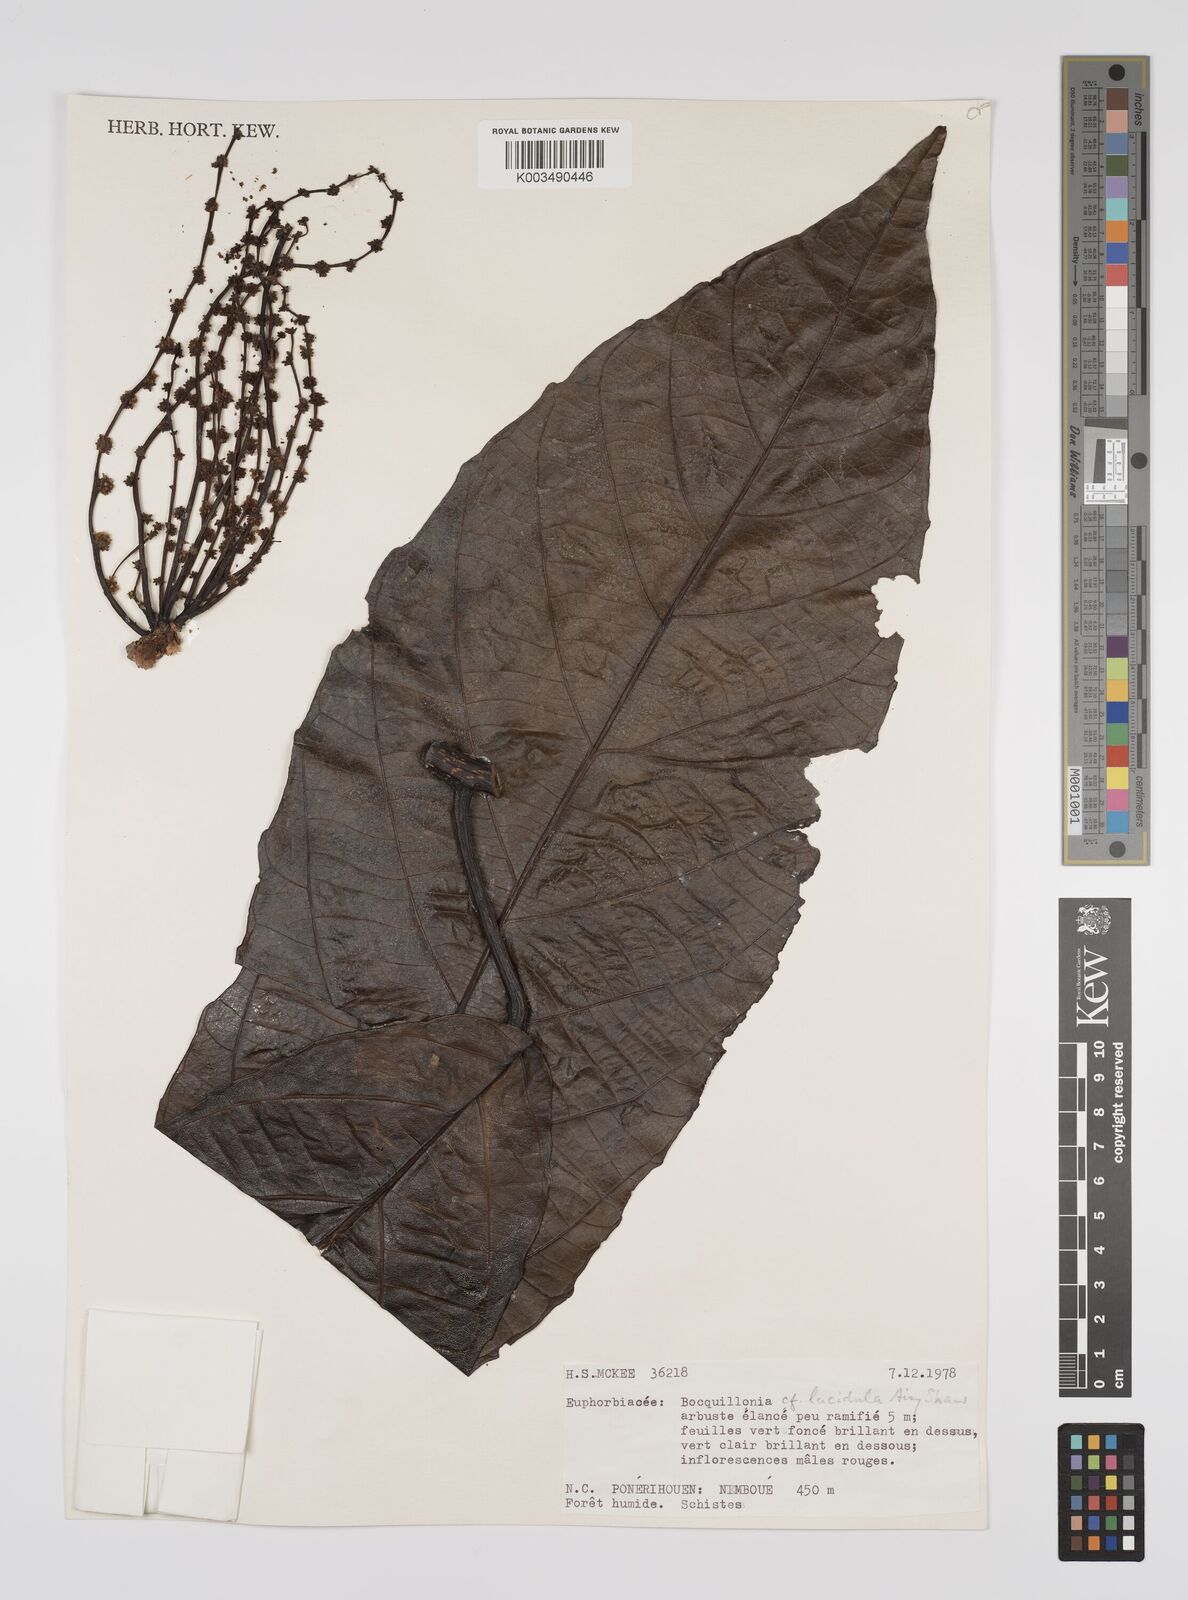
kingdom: Plantae
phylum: Tracheophyta
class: Magnoliopsida
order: Malpighiales
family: Euphorbiaceae
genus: Bocquillonia
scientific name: Bocquillonia lucidula
